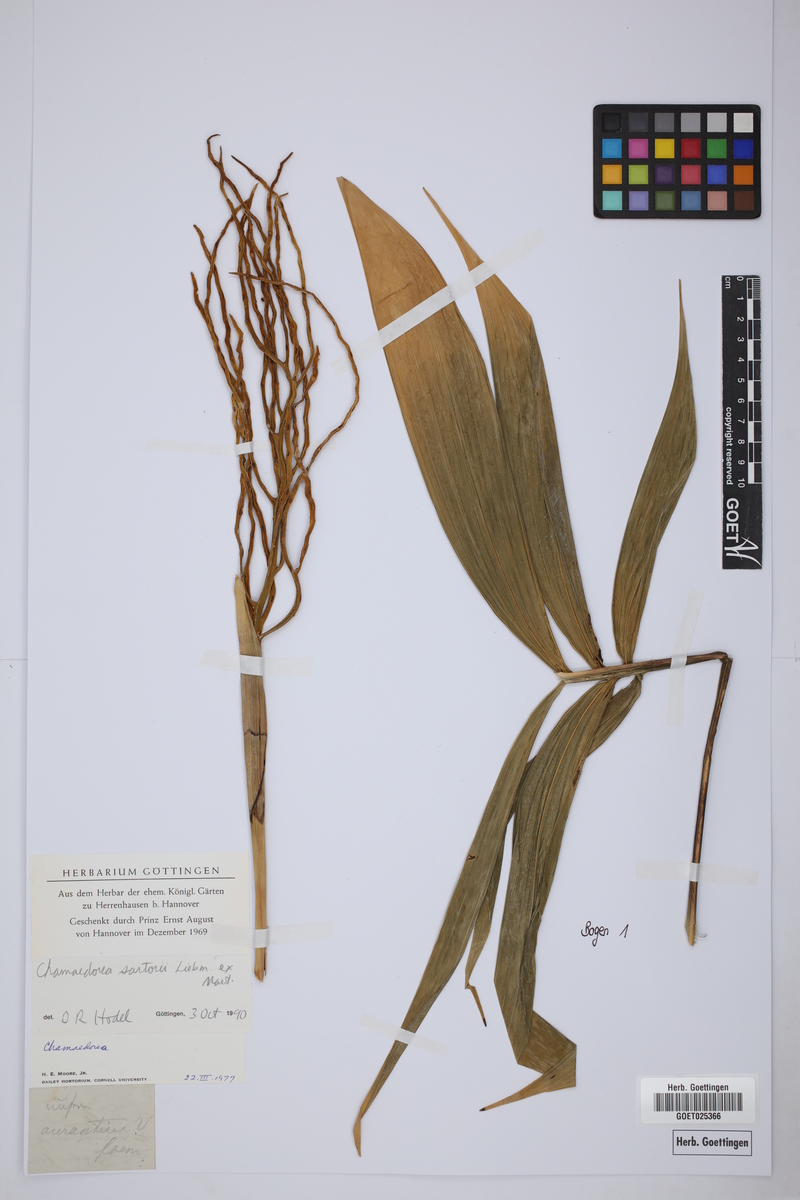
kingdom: Plantae
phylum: Tracheophyta
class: Liliopsida
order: Arecales
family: Arecaceae
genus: Chamaedorea
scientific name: Chamaedorea sartorii
